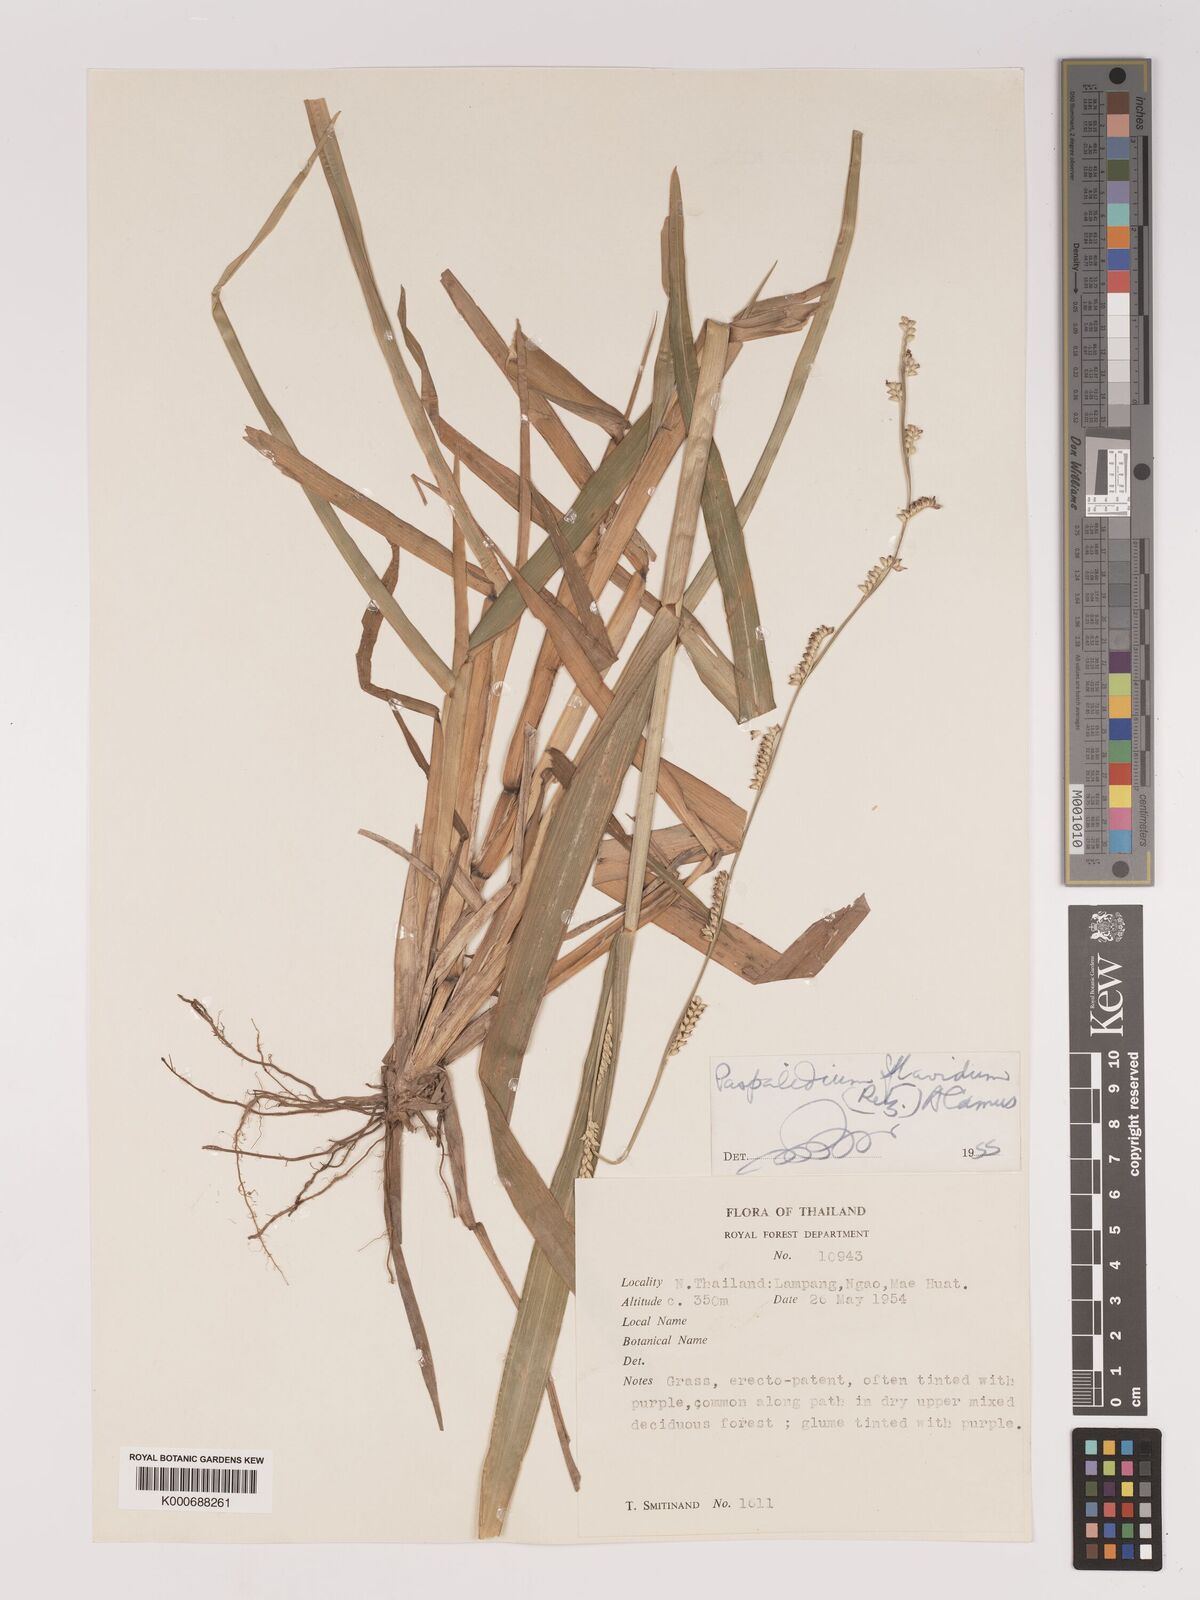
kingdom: Plantae
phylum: Tracheophyta
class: Liliopsida
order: Poales
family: Poaceae
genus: Setaria
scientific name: Setaria flavida
